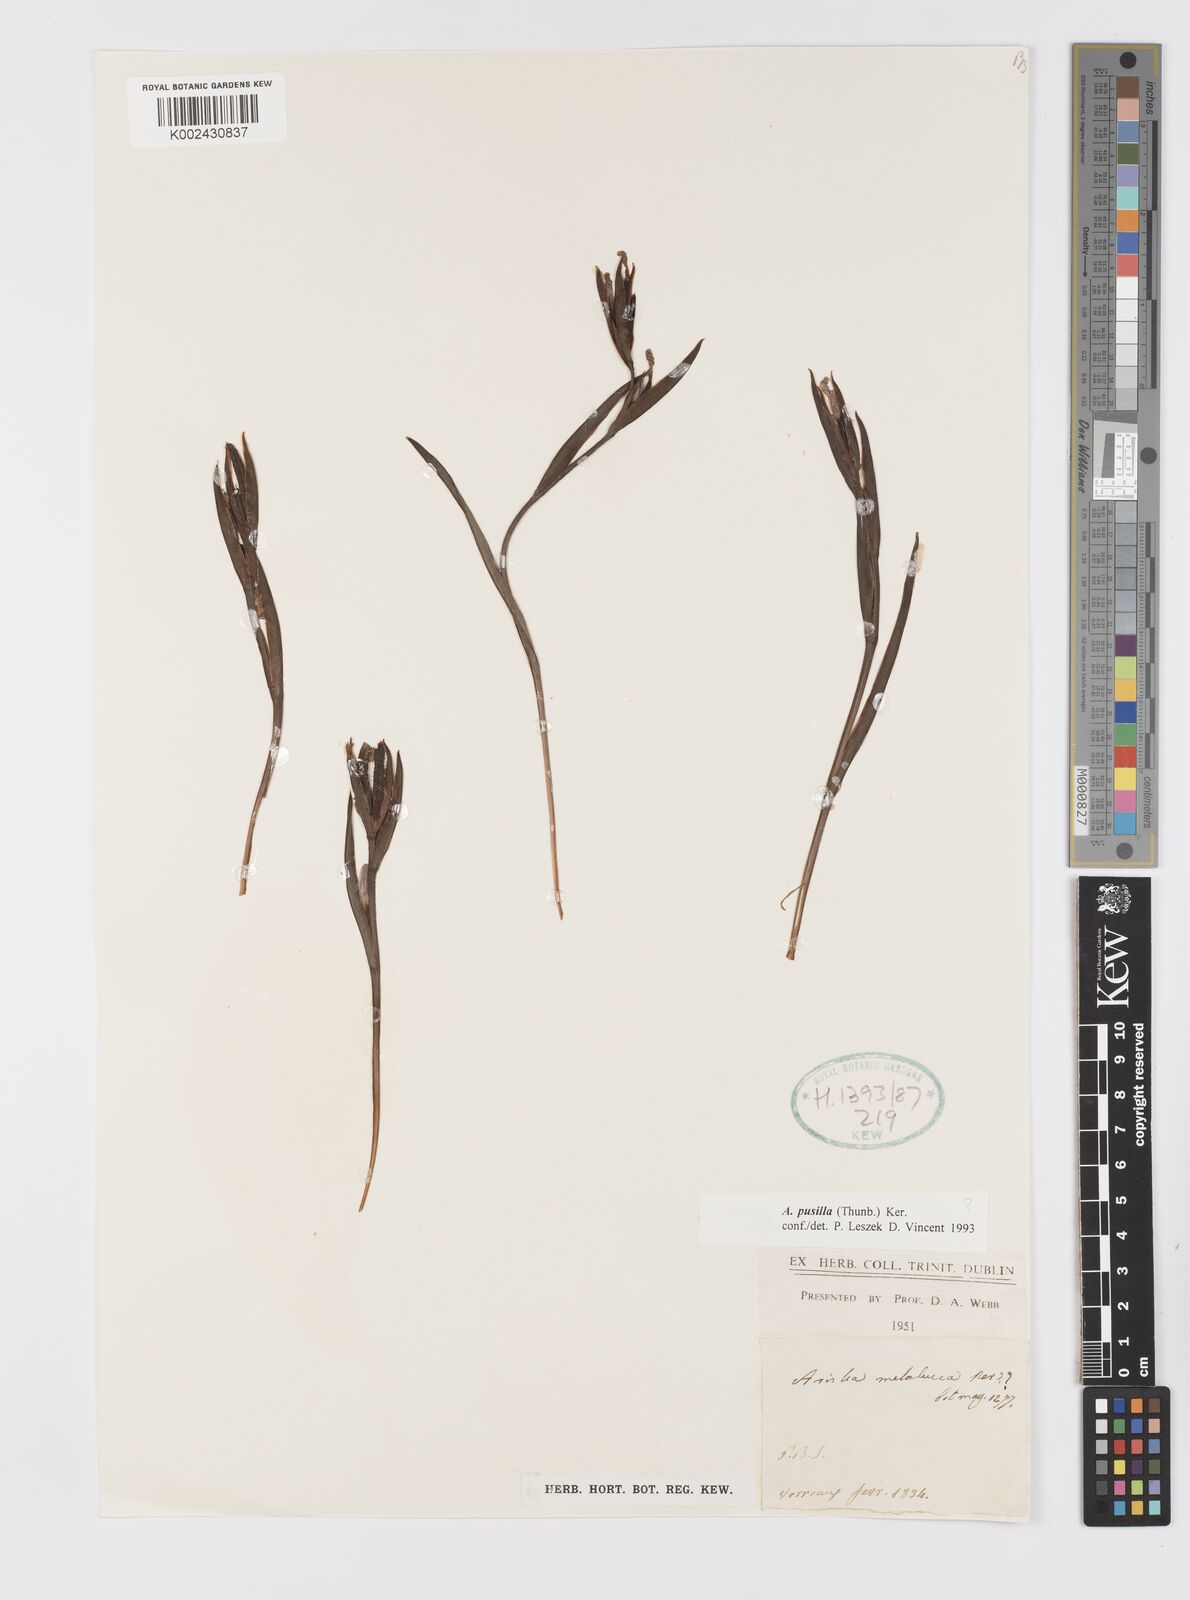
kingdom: Plantae
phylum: Tracheophyta
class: Liliopsida
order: Asparagales
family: Iridaceae
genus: Aristea
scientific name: Aristea pusilla
